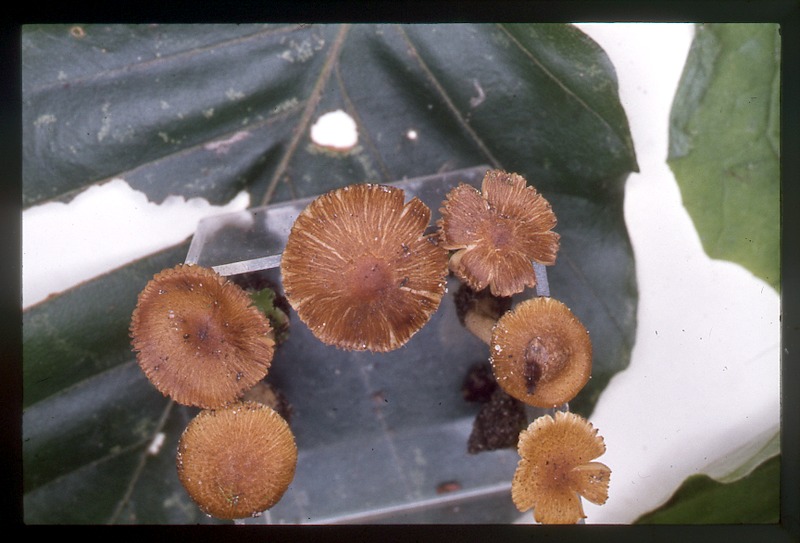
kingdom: Fungi
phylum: Basidiomycota
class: Agaricomycetes
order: Agaricales
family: Inocybaceae
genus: Pseudosperma
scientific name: Pseudosperma squamatum
